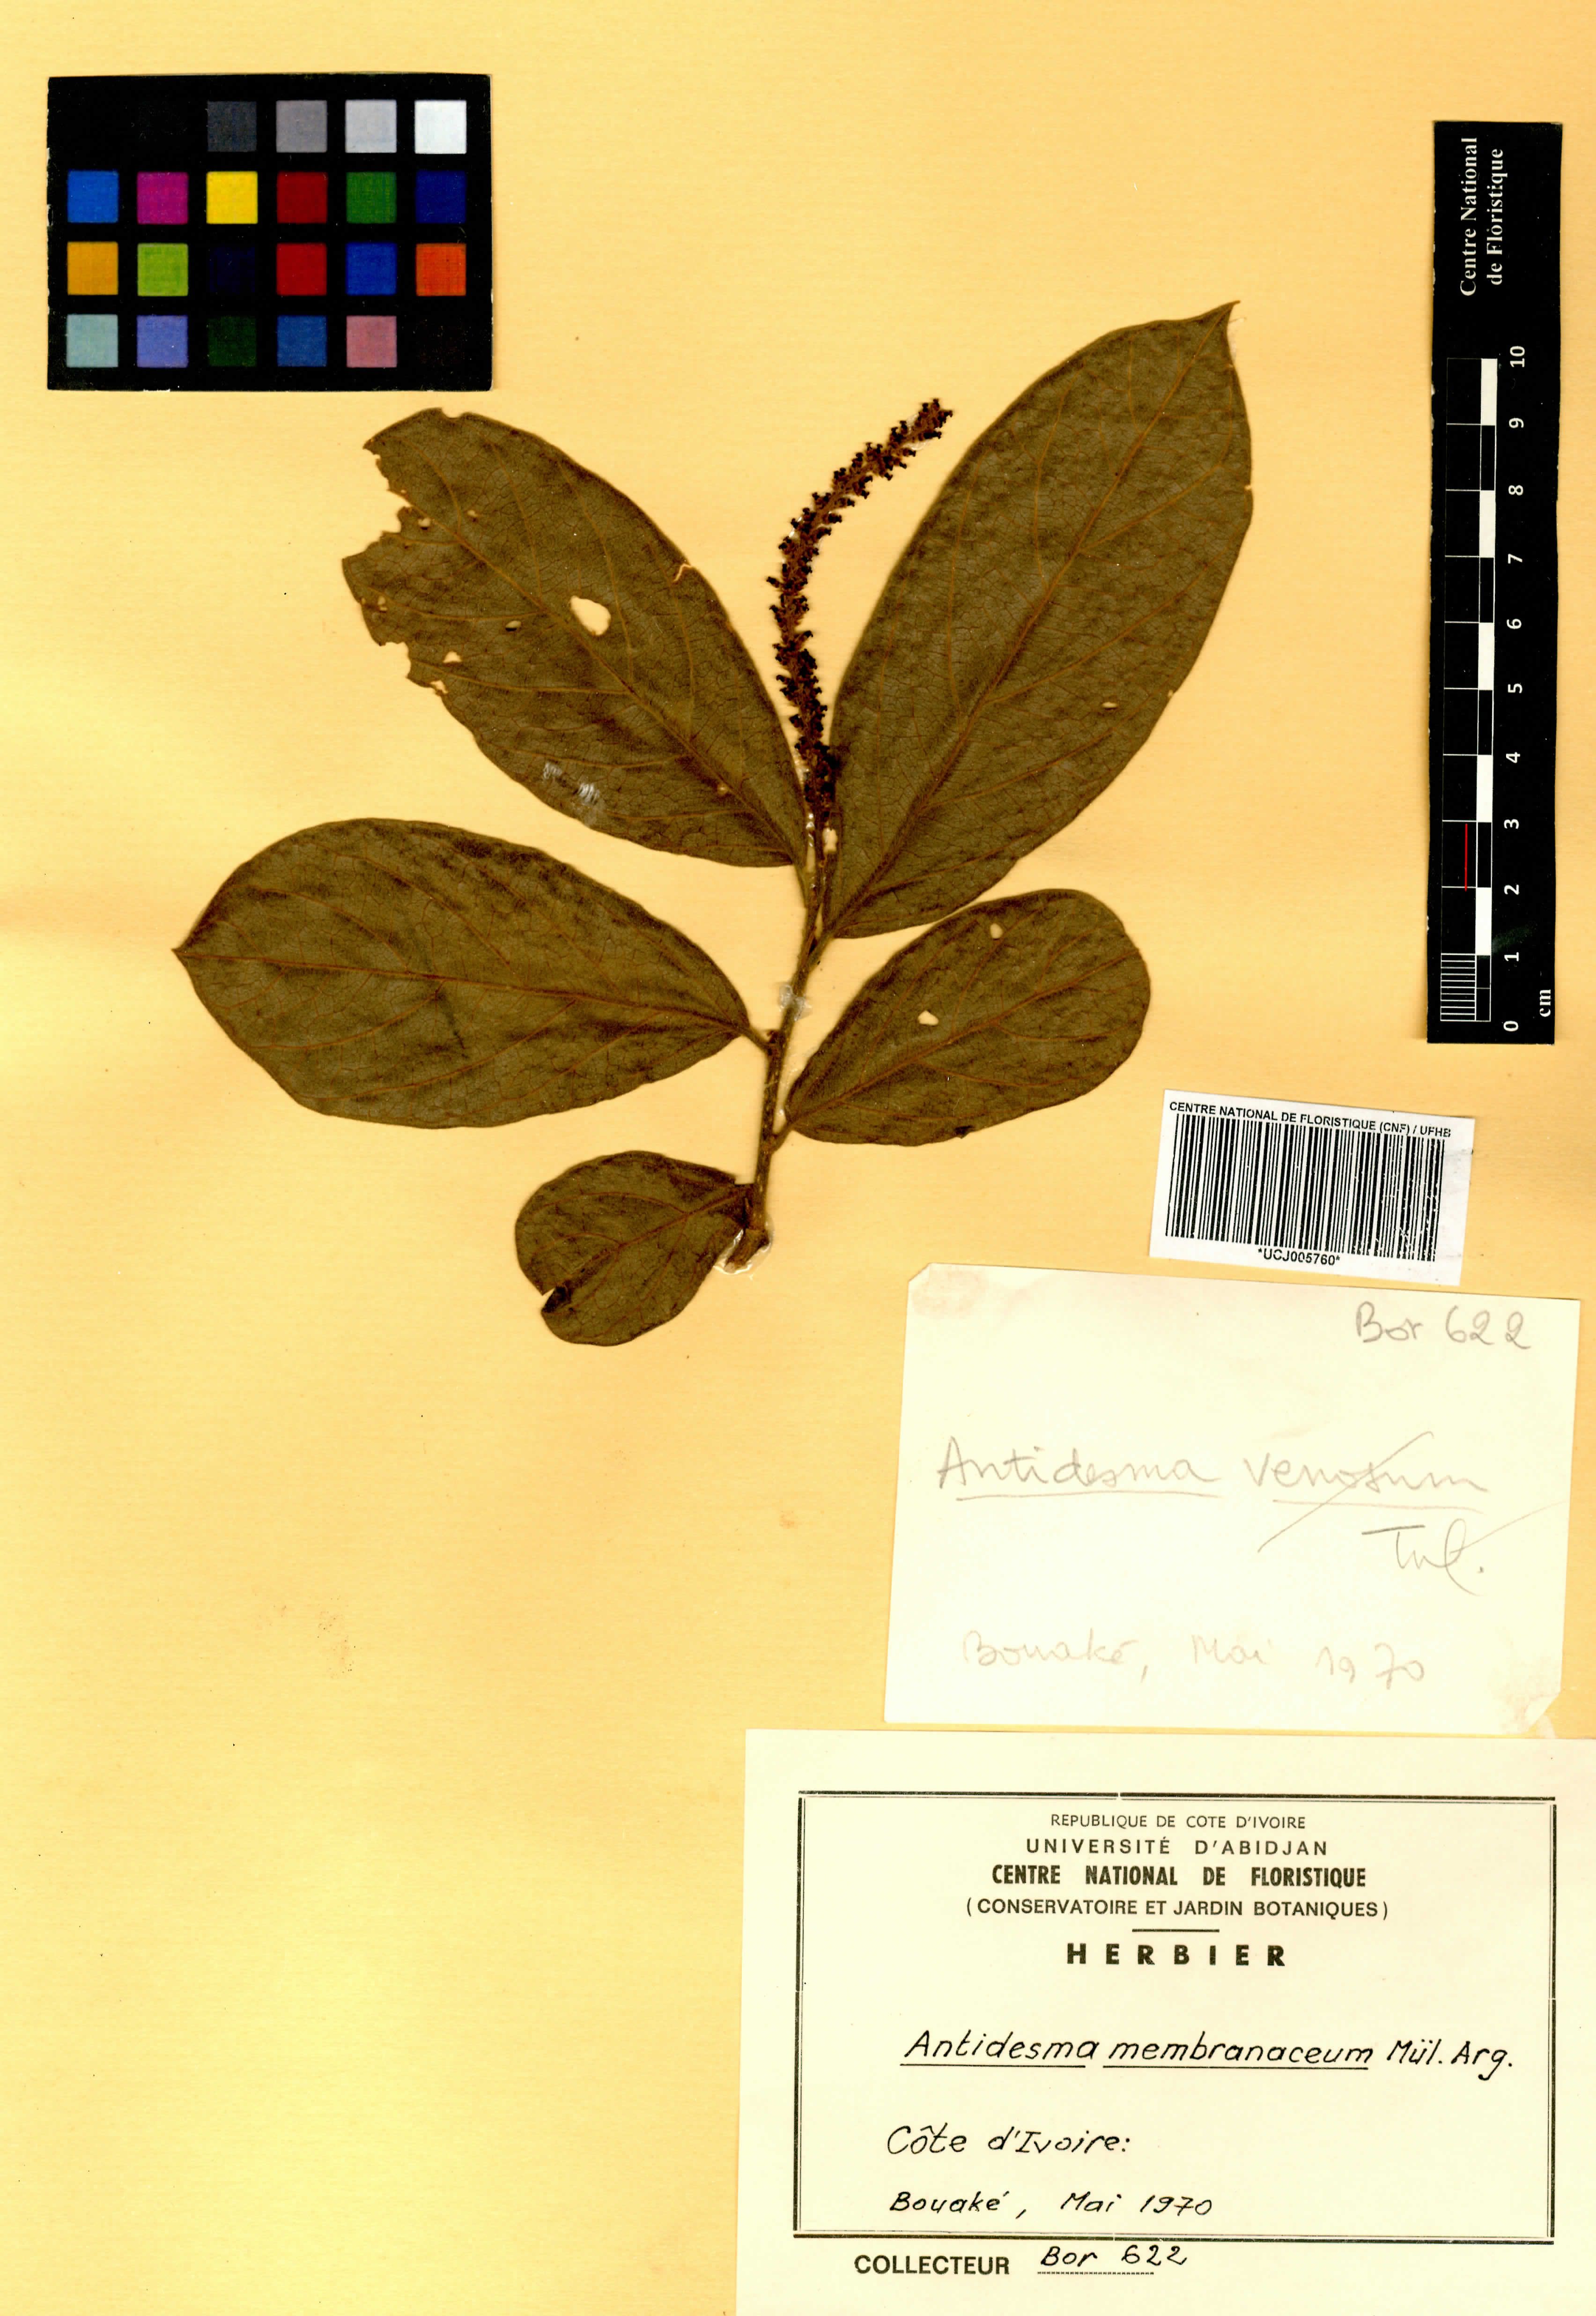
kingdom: Plantae
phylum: Tracheophyta
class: Magnoliopsida
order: Malpighiales
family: Phyllanthaceae
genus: Antidesma
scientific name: Antidesma membranaceum
